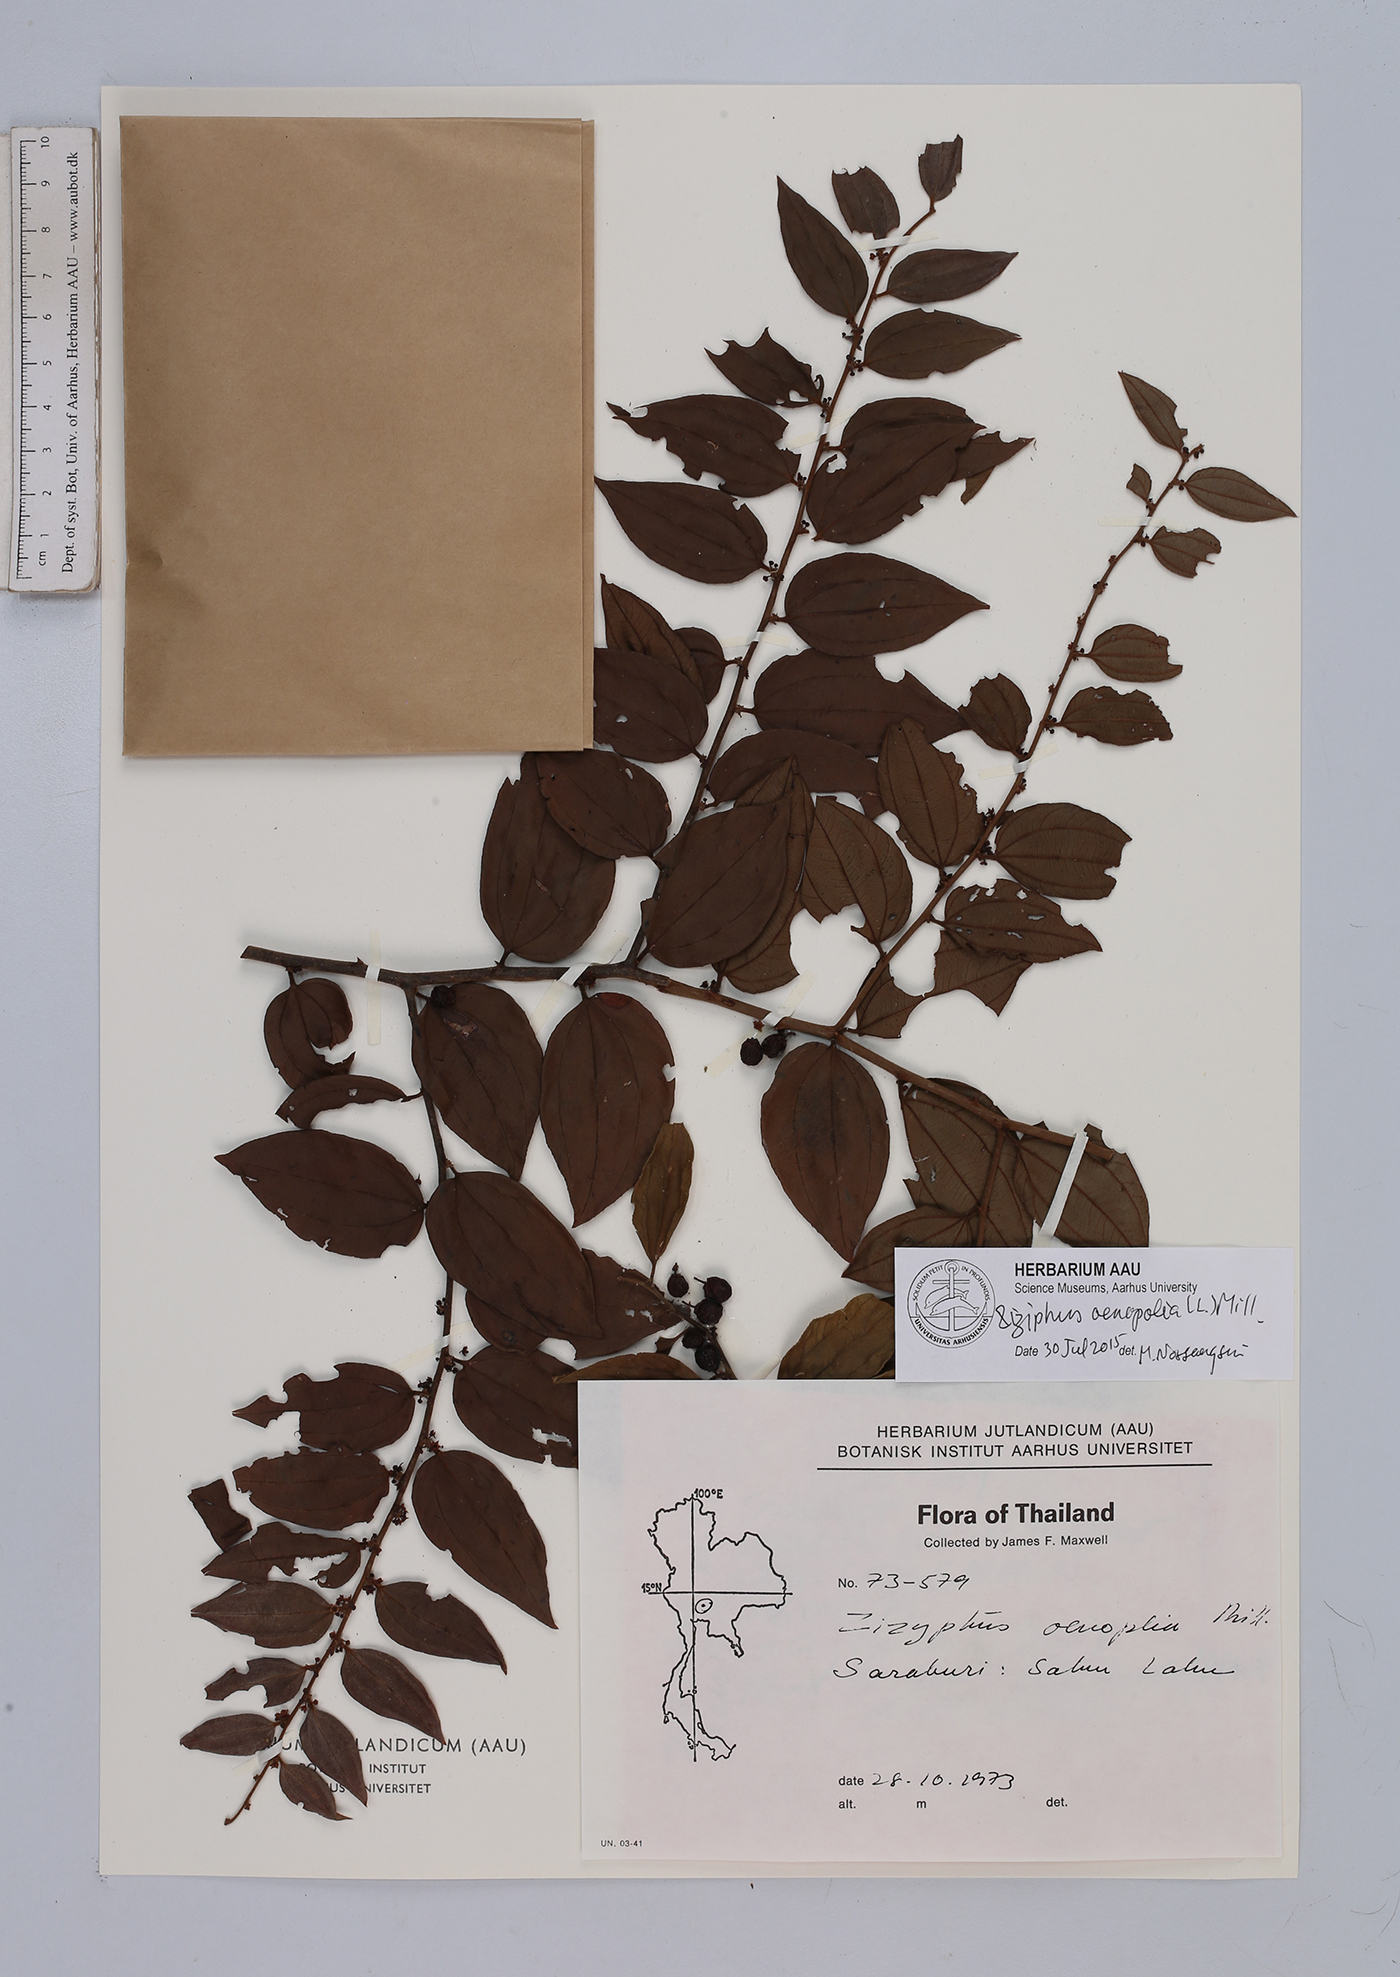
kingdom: Plantae
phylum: Tracheophyta
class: Magnoliopsida
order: Rosales
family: Rhamnaceae
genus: Ziziphus
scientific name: Ziziphus oenopolia
